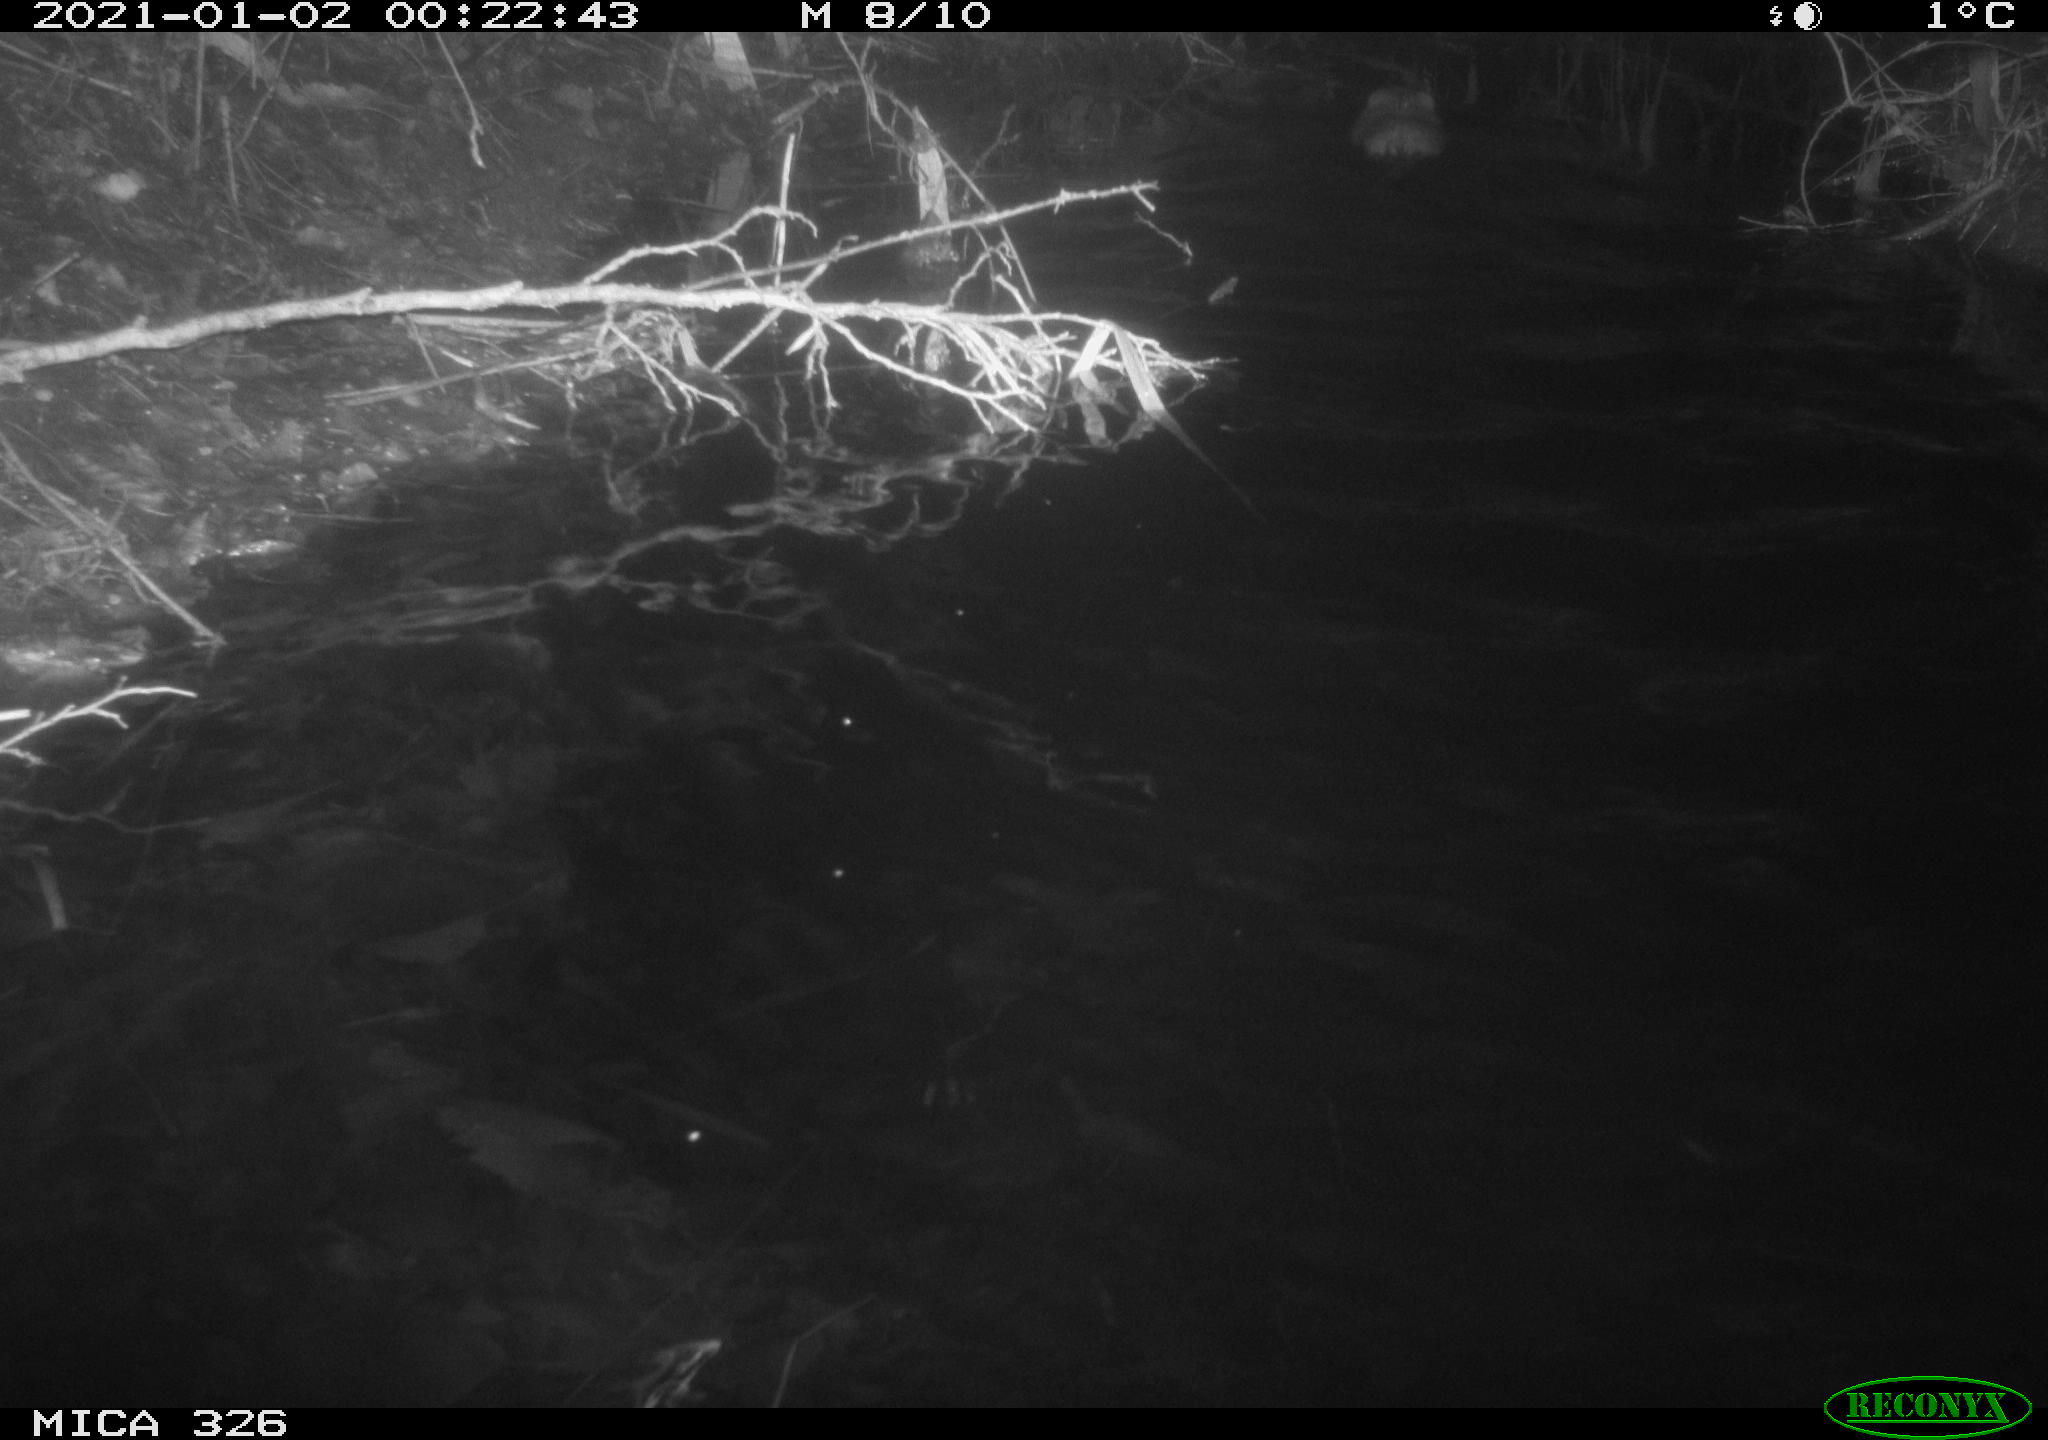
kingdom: Animalia
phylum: Chordata
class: Mammalia
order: Rodentia
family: Cricetidae
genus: Ondatra
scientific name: Ondatra zibethicus
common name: Muskrat
